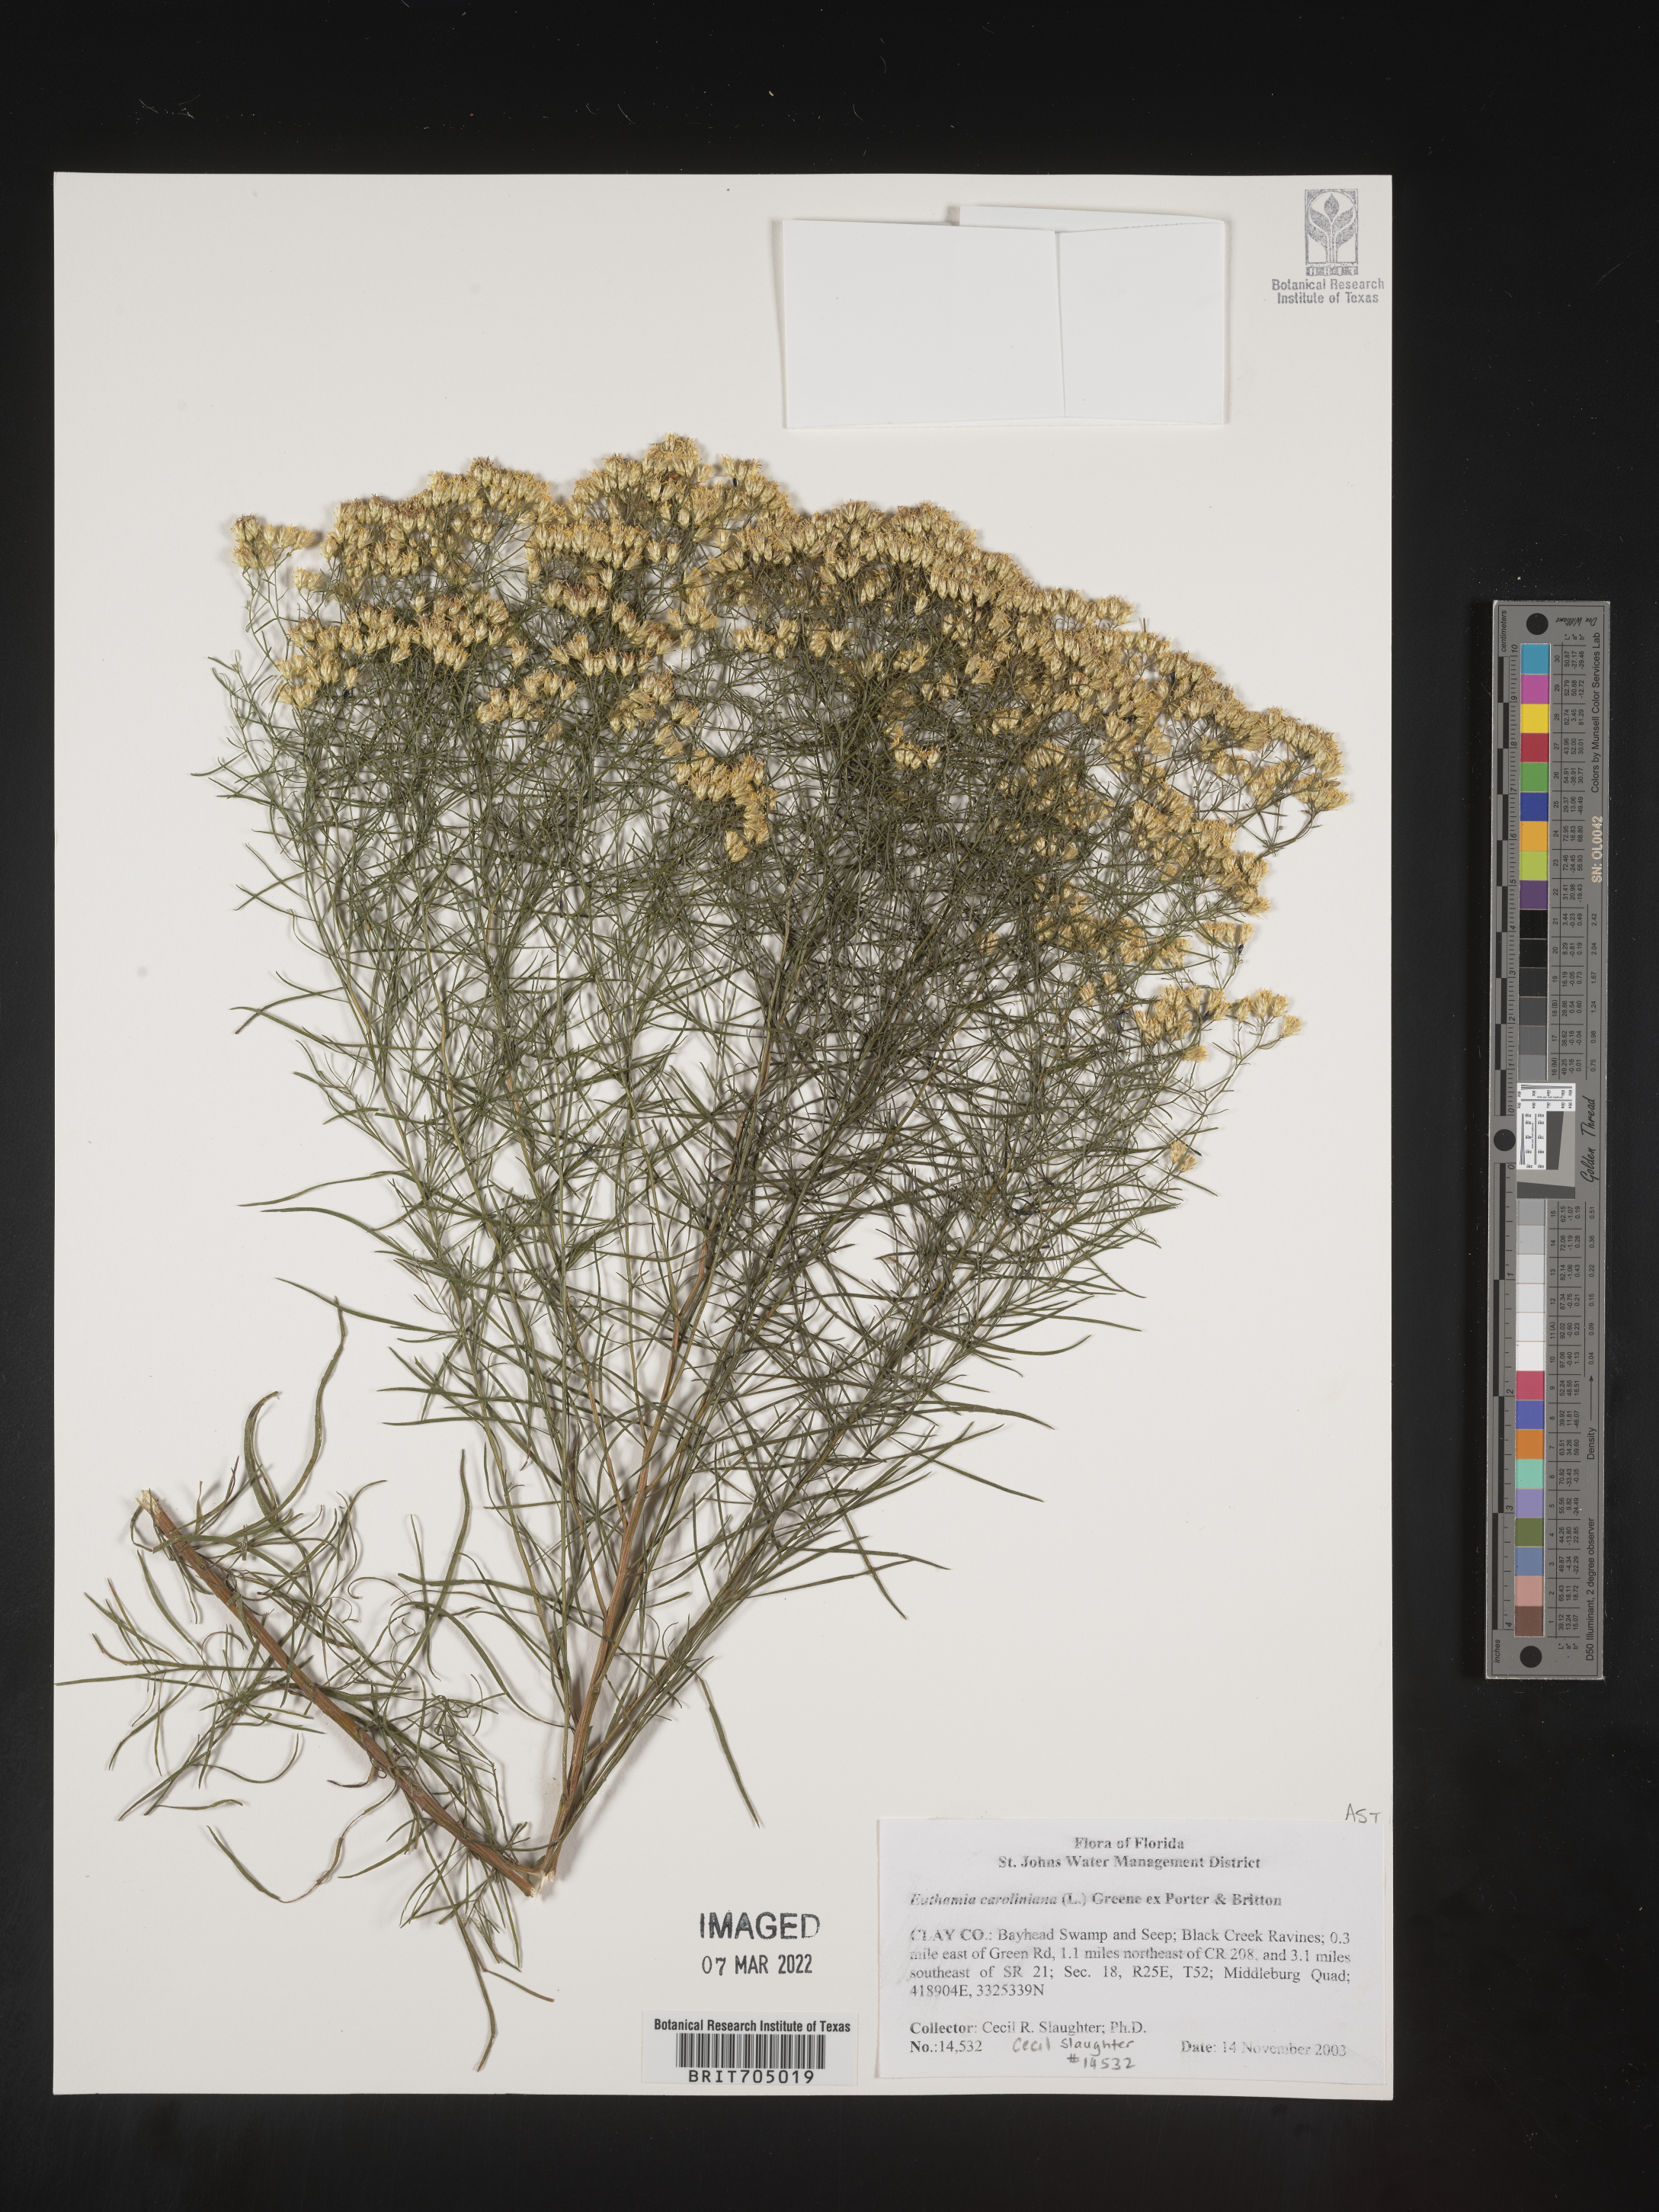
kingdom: Plantae
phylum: Tracheophyta
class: Magnoliopsida
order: Asterales
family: Asteraceae
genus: Euthamia
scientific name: Euthamia caroliniana
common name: Coastal plain goldentop
